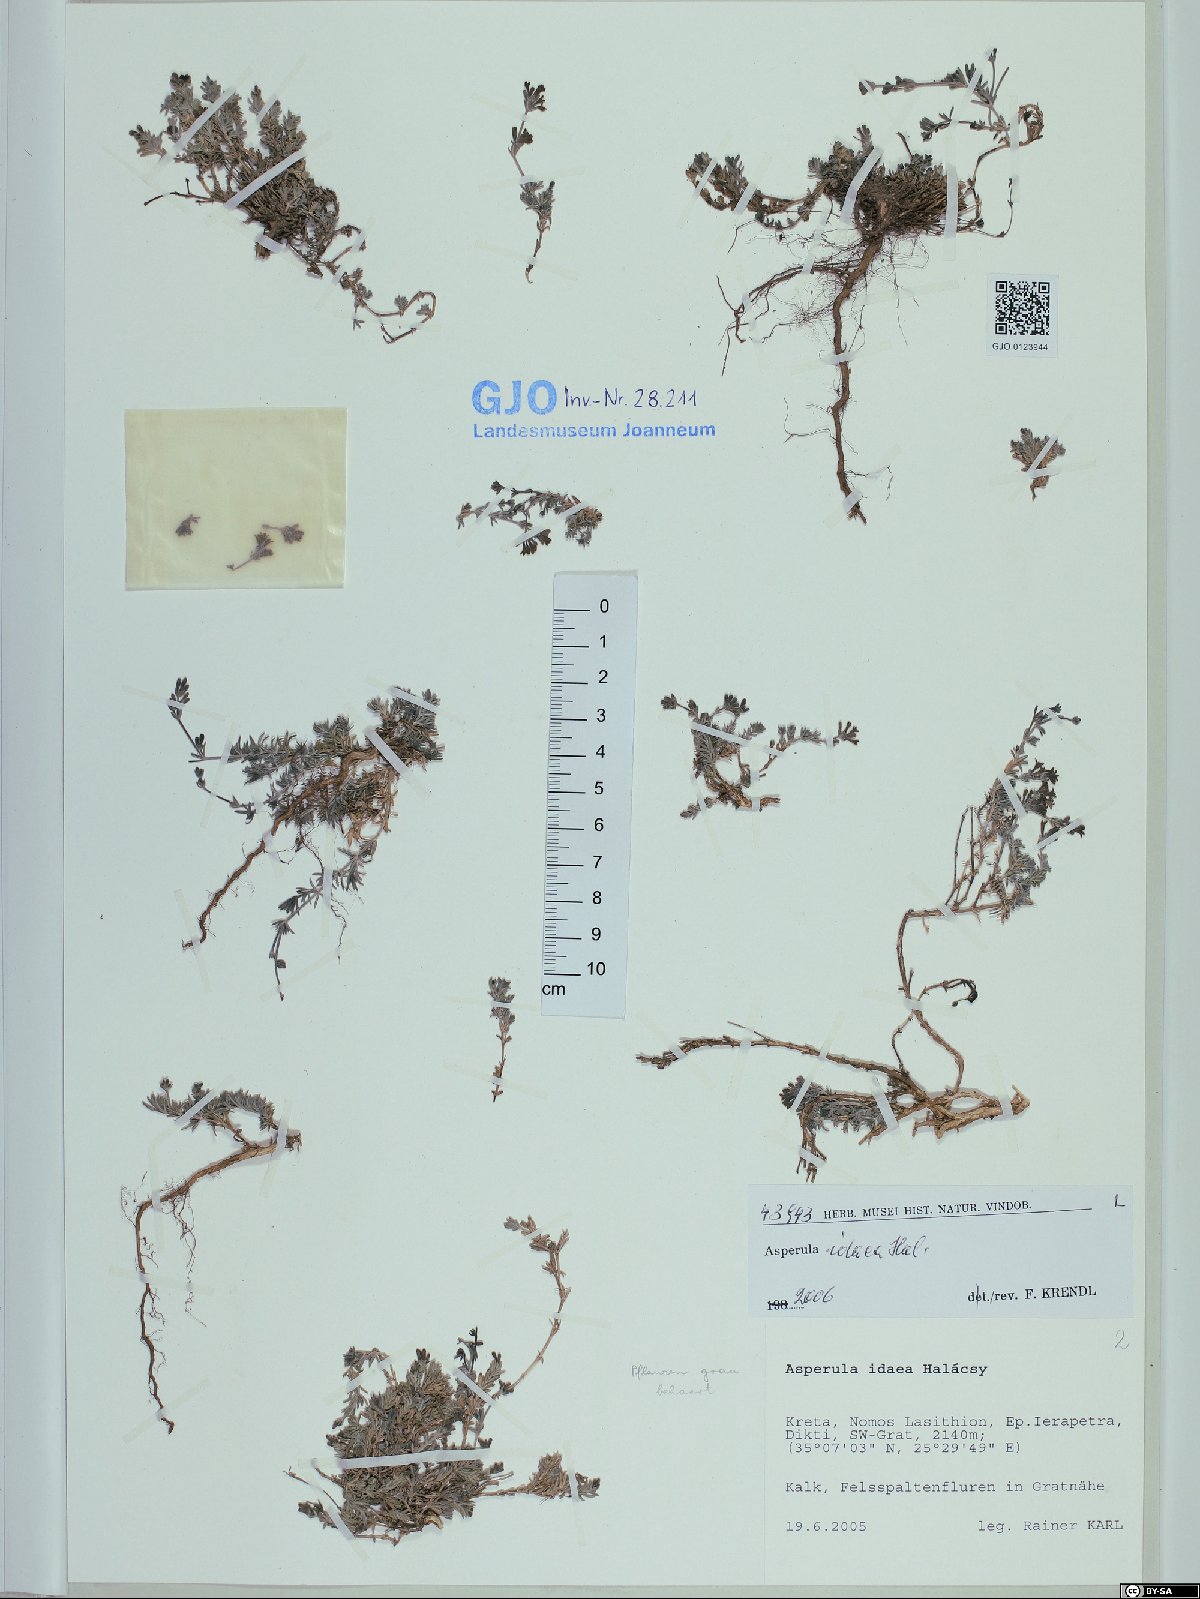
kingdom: Plantae
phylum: Tracheophyta
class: Magnoliopsida
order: Gentianales
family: Rubiaceae
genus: Cynanchica
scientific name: Cynanchica idaea
